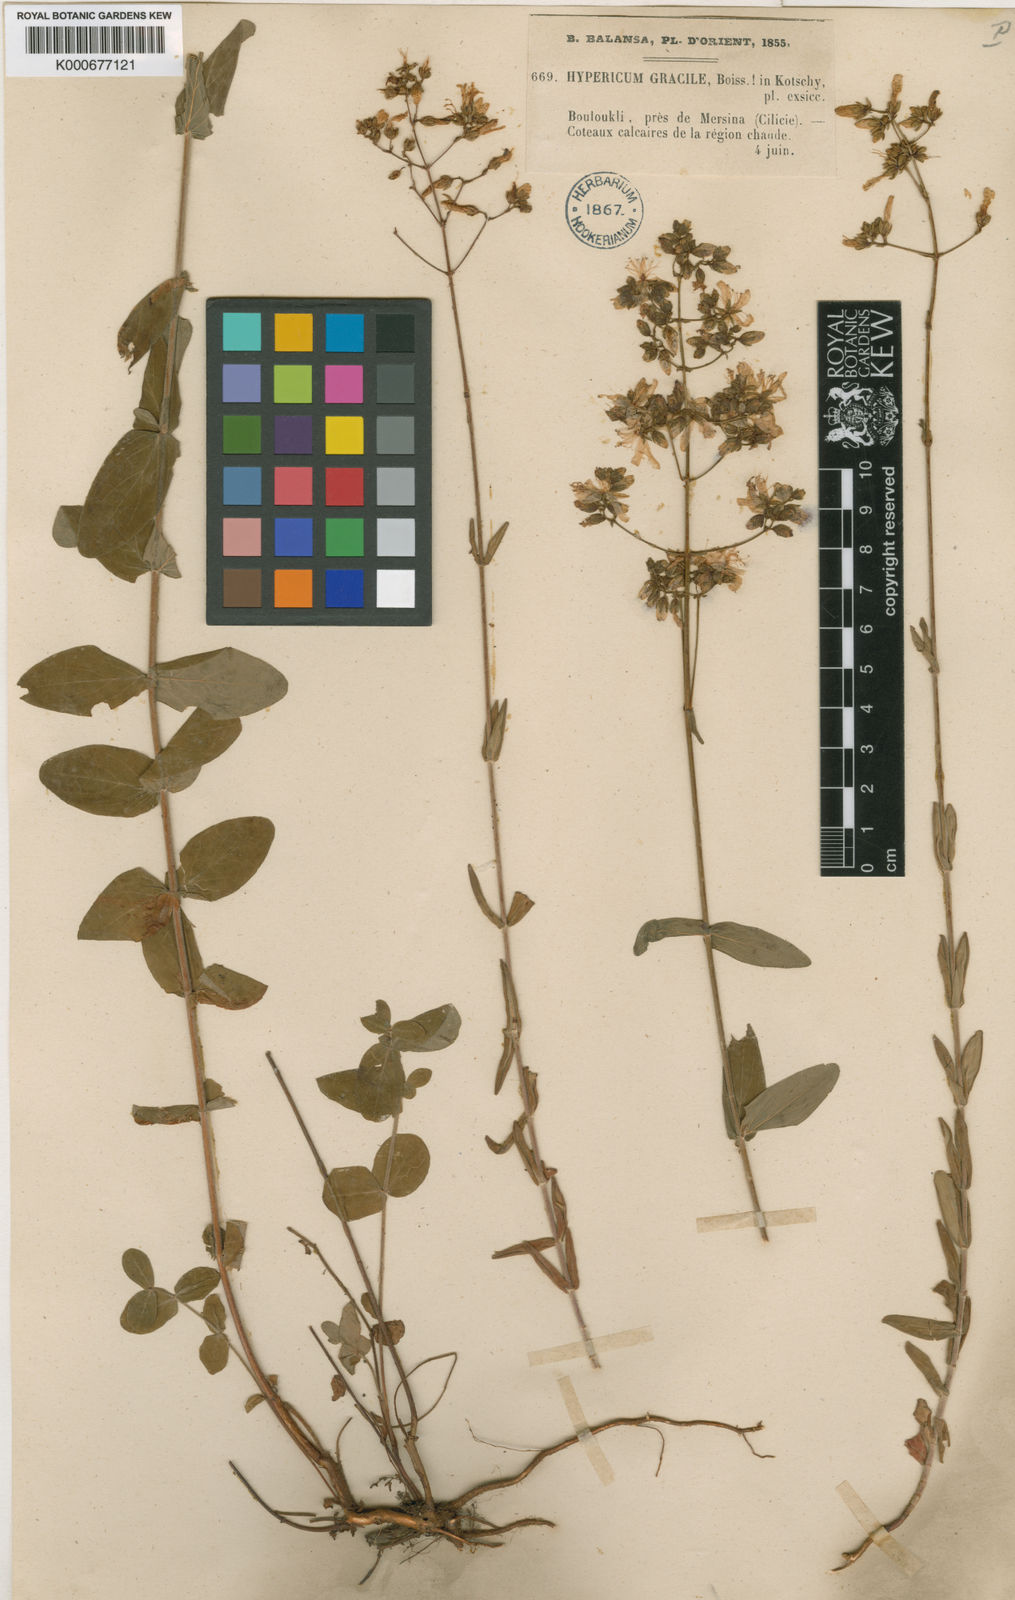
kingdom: Plantae
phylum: Tracheophyta
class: Magnoliopsida
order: Malpighiales
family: Hypericaceae
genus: Hypericum
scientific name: Hypericum lanuginosum
